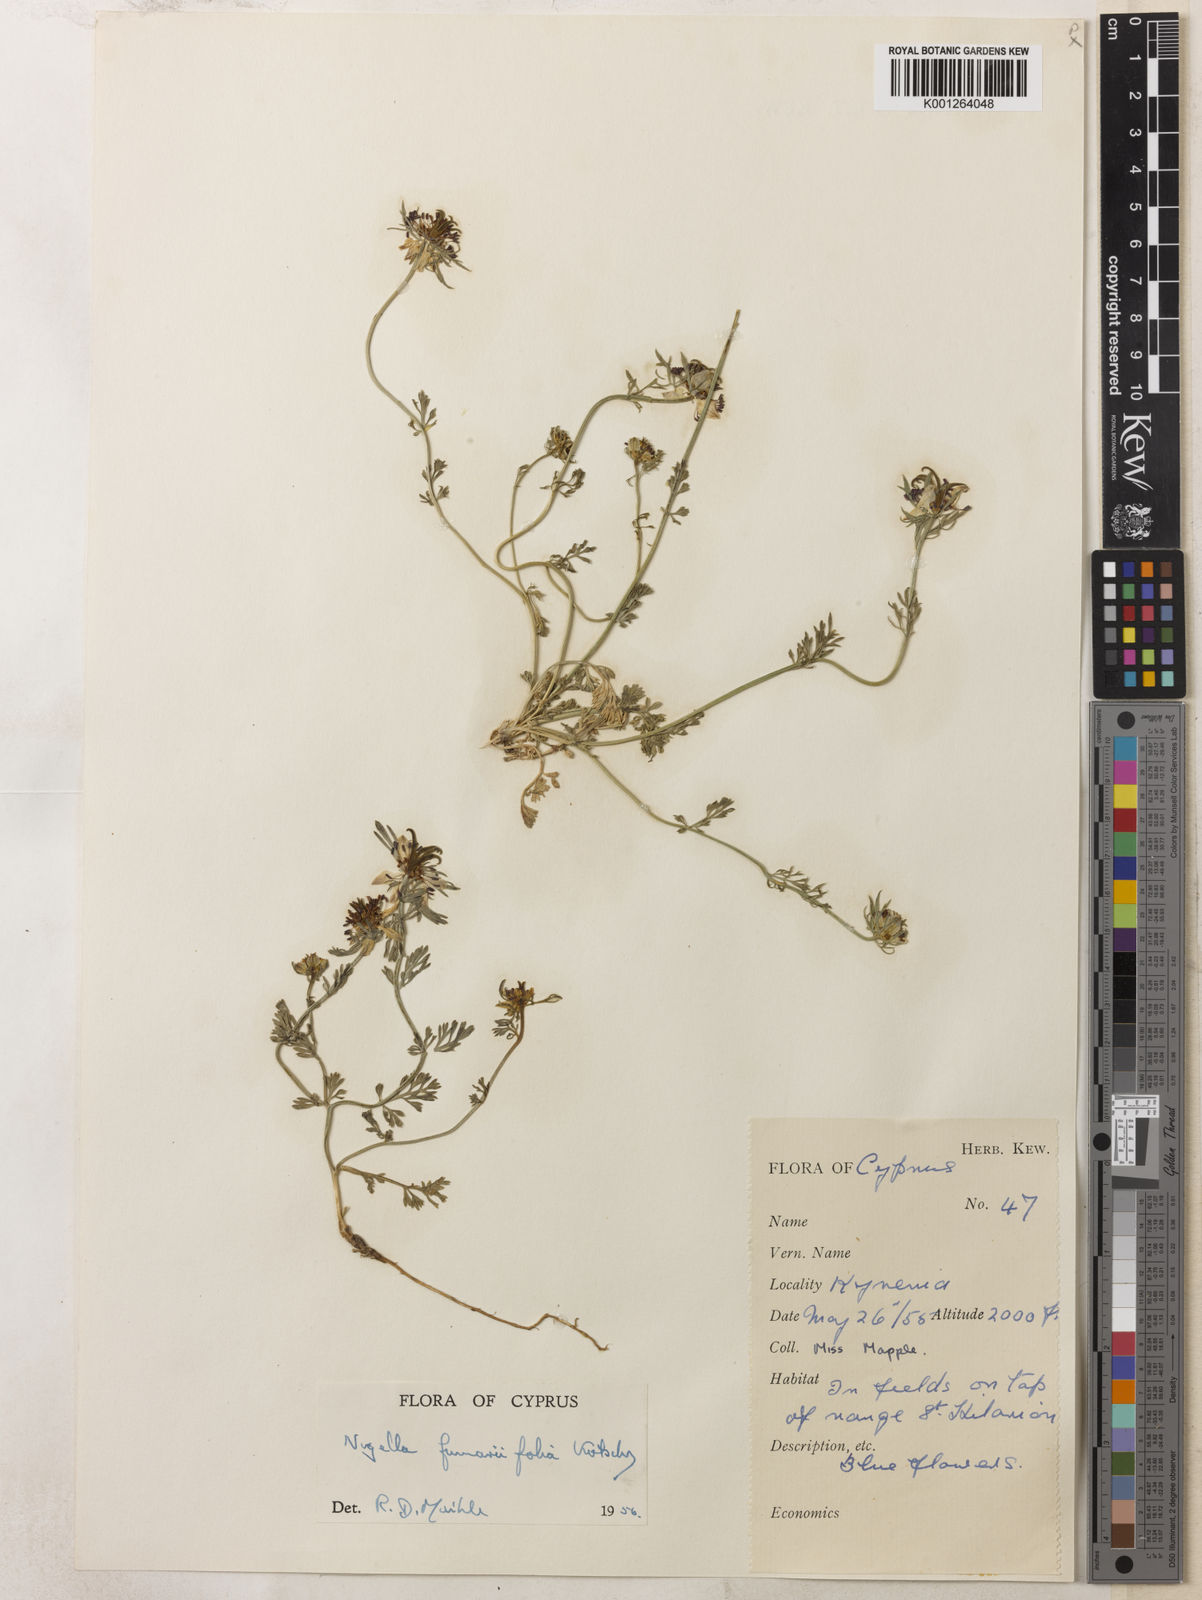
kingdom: Plantae
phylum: Tracheophyta
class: Magnoliopsida
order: Ranunculales
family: Ranunculaceae
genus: Nigella
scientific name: Nigella
